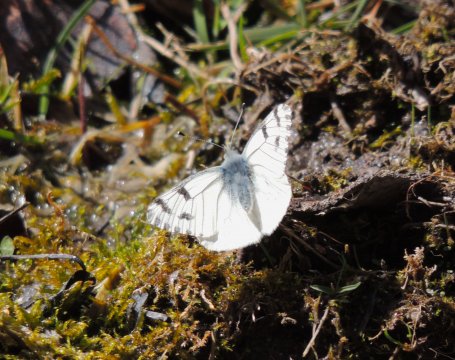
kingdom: Animalia
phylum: Arthropoda
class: Insecta
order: Lepidoptera
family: Pieridae
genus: Pontia
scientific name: Pontia sisymbrii
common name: Spring White
